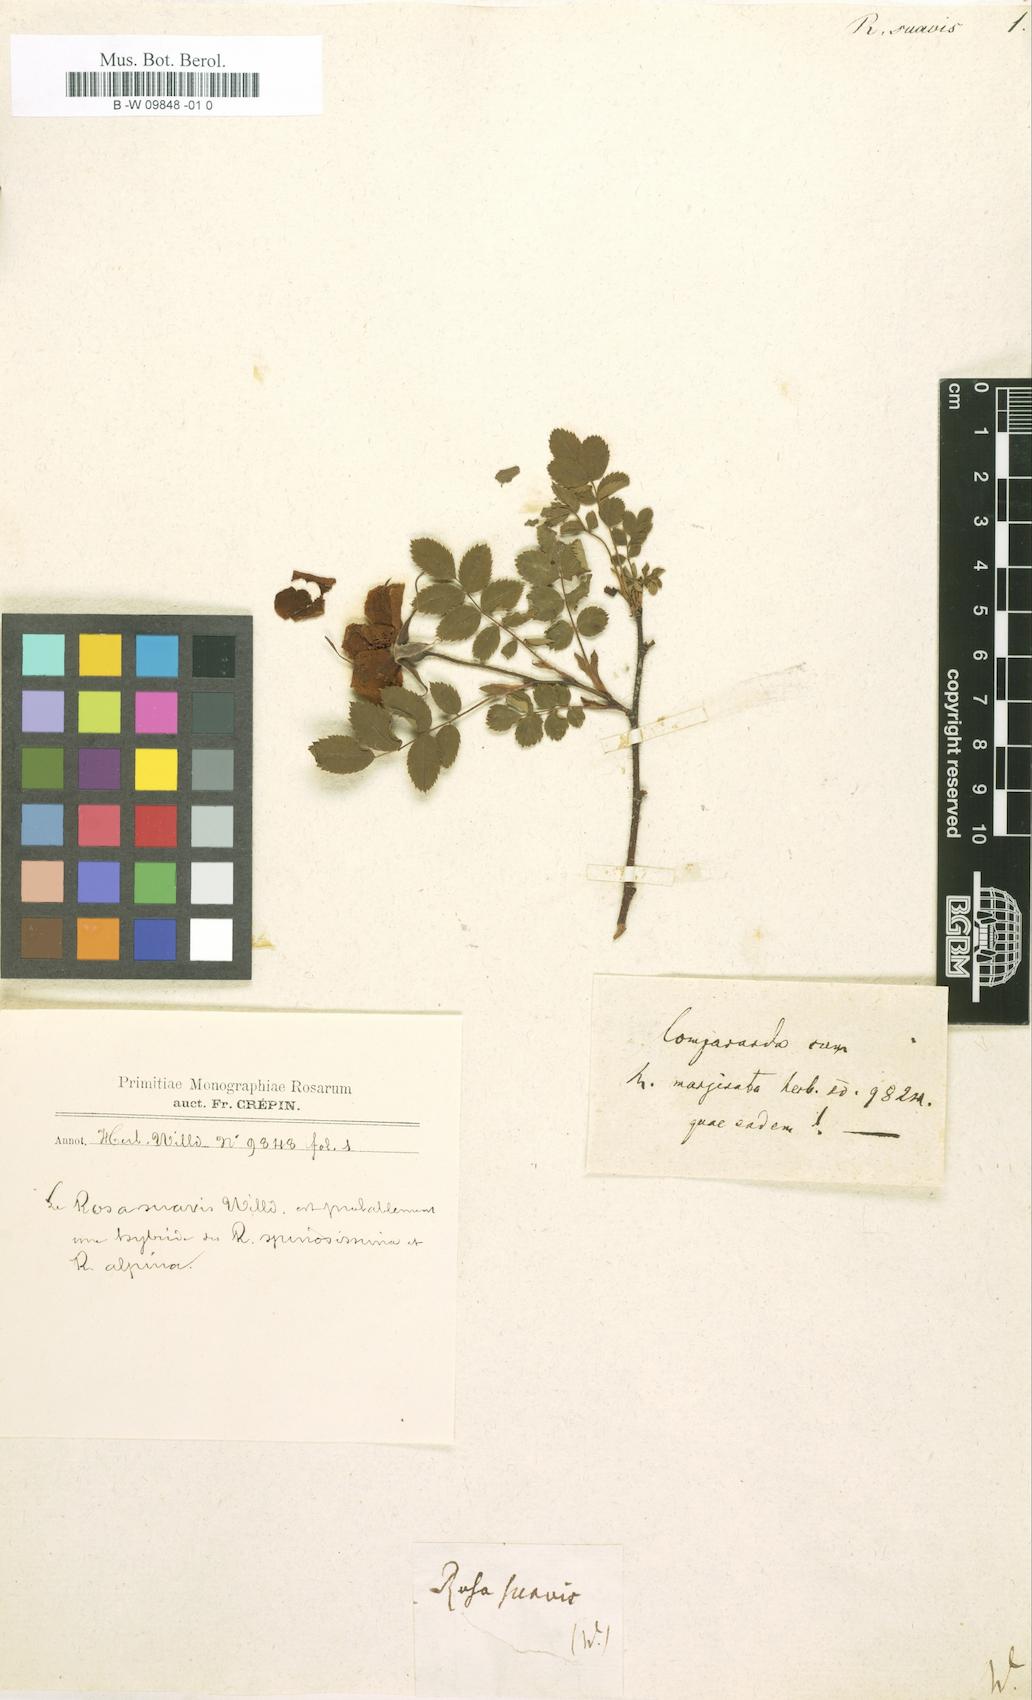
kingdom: Plantae
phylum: Tracheophyta
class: Magnoliopsida
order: Rosales
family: Rosaceae
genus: Rosa
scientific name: Rosa
